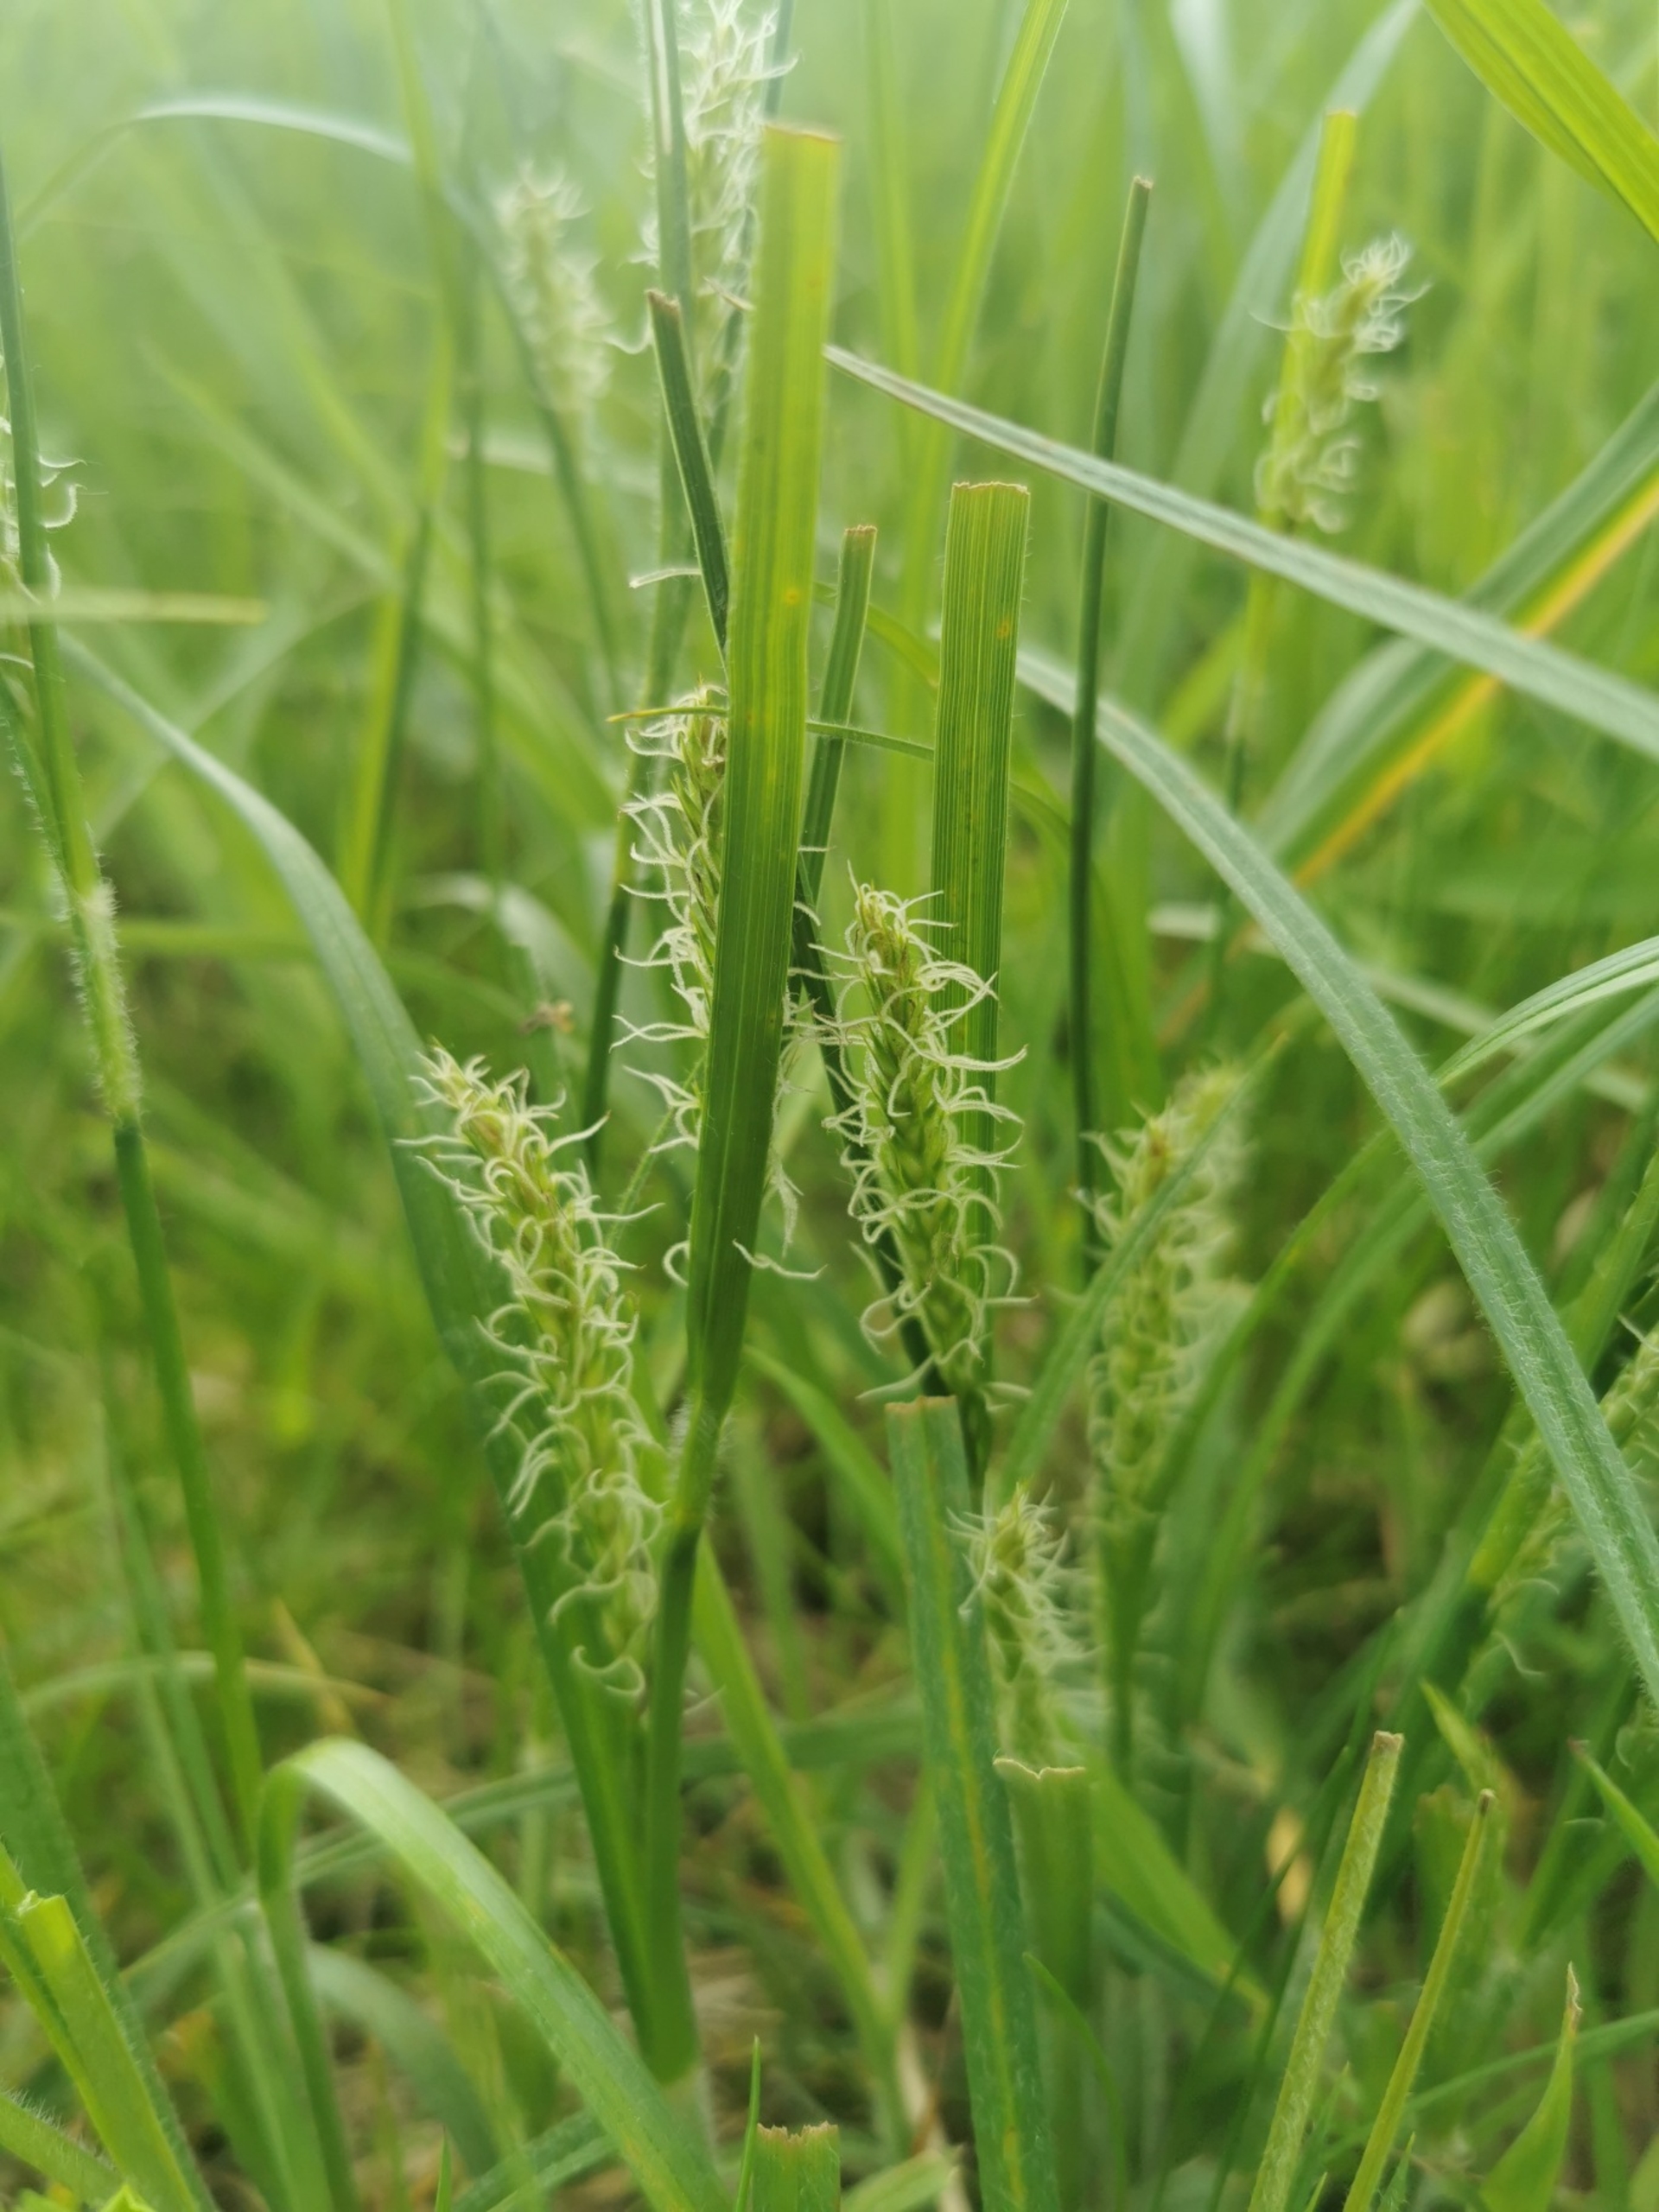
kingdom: Plantae
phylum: Tracheophyta
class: Liliopsida
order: Poales
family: Cyperaceae
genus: Carex
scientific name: Carex hirta
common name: Håret star
